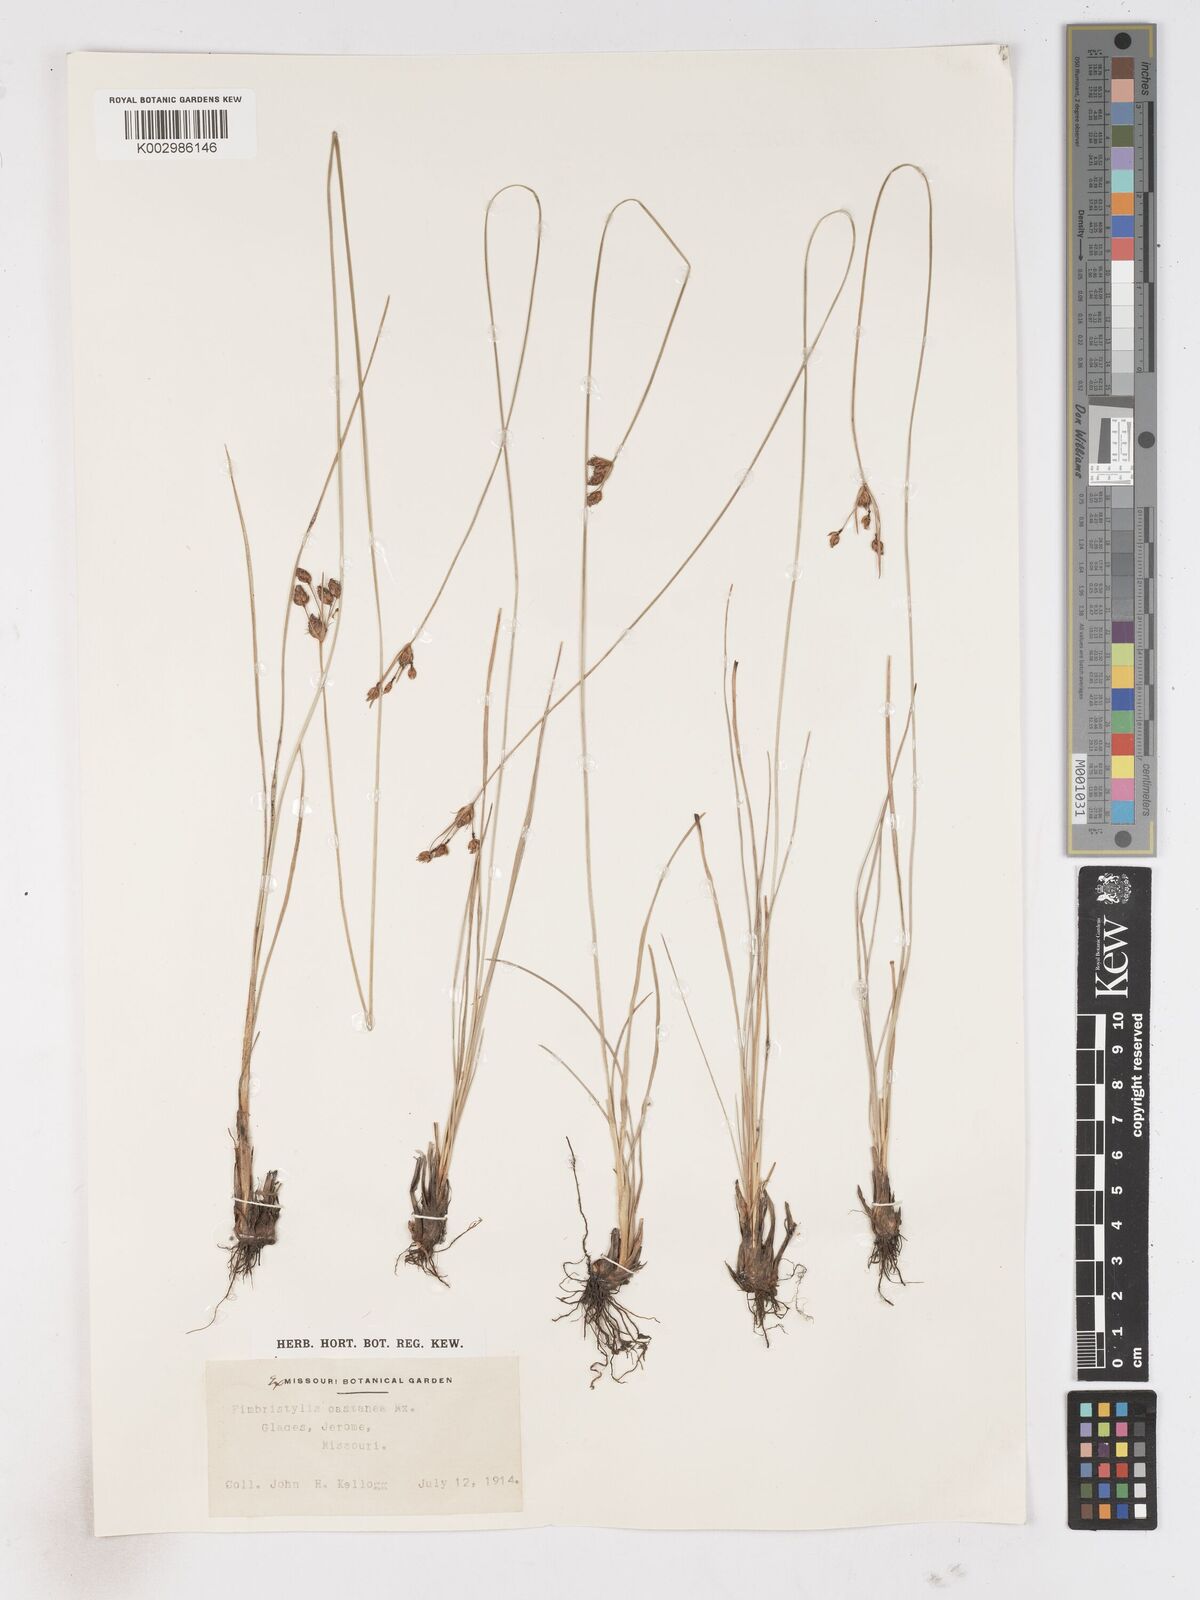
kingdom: Plantae
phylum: Tracheophyta
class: Liliopsida
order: Poales
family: Cyperaceae
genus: Fimbristylis
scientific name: Fimbristylis spadicea
